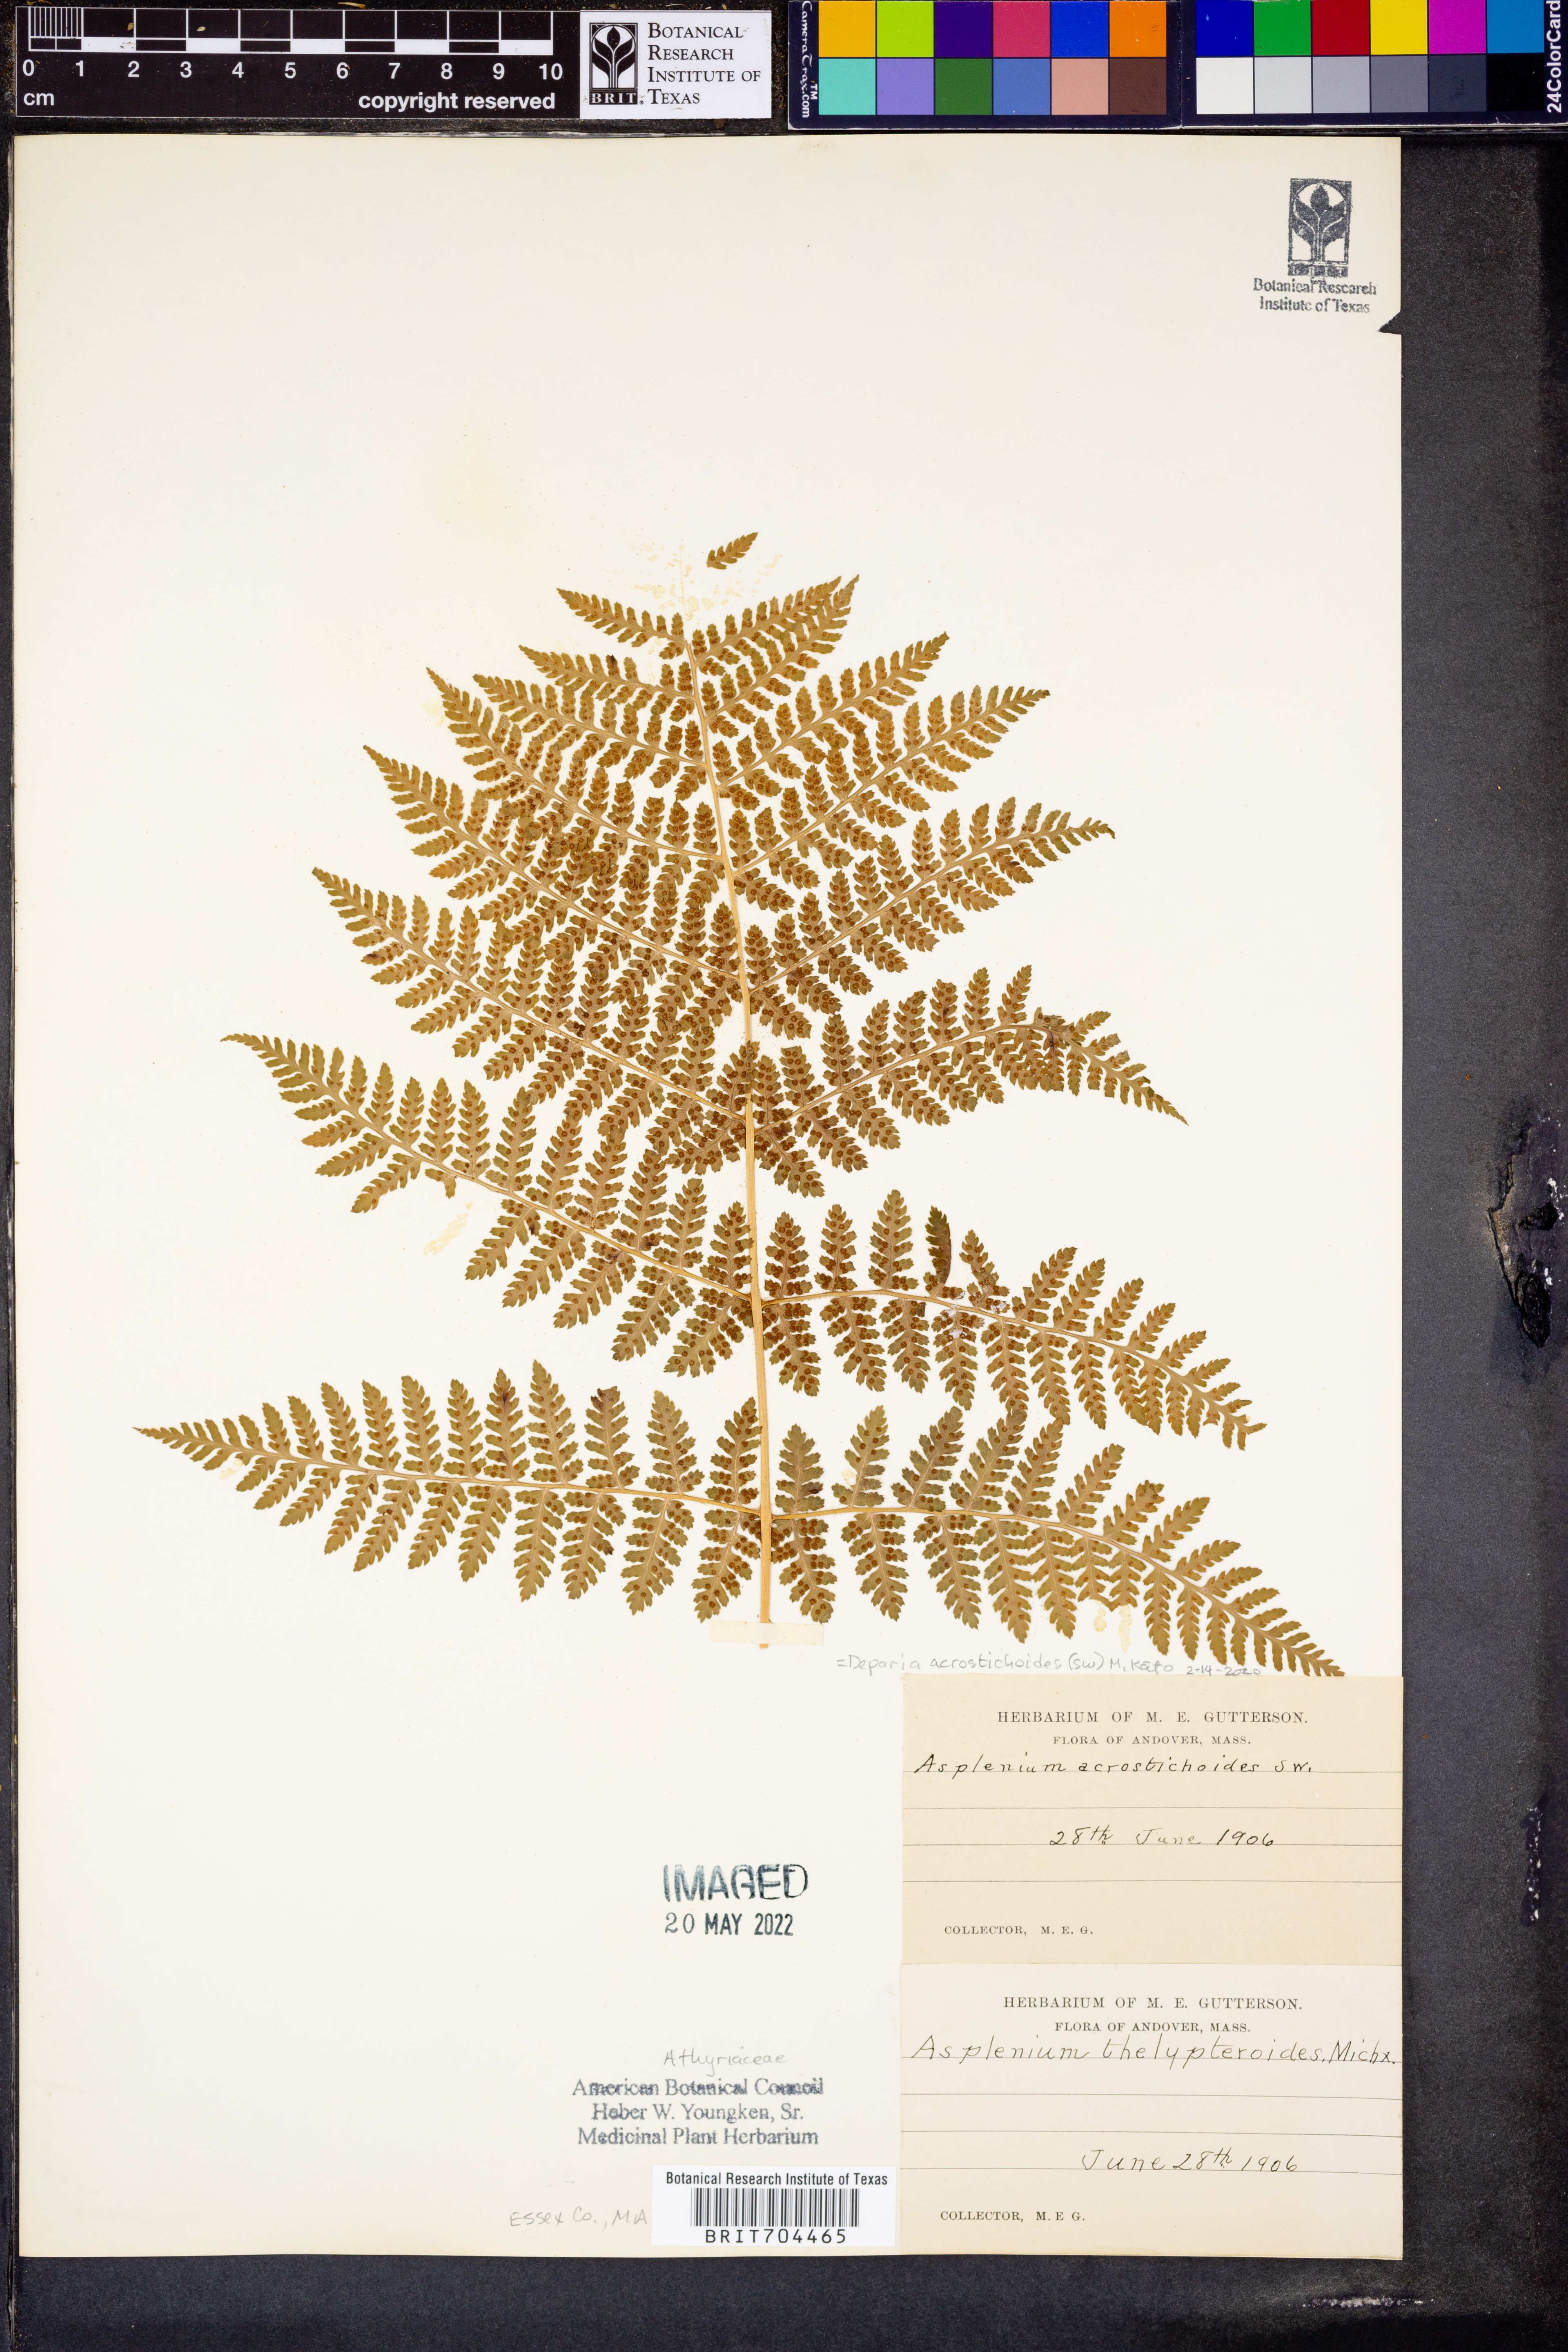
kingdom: Plantae
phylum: Tracheophyta
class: Polypodiopsida
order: Polypodiales
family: Athyriaceae
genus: Deparia
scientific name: Deparia acrostichoides
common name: Silver false spleenwort
